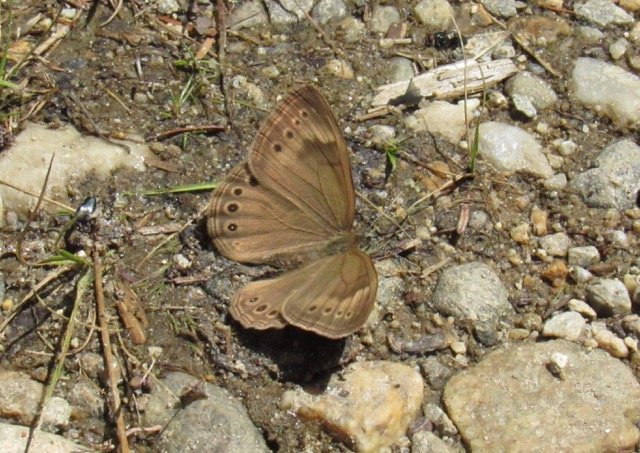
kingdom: Animalia
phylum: Arthropoda
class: Insecta
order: Lepidoptera
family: Nymphalidae
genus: Lethe
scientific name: Lethe eurydice
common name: Eyed Brown
